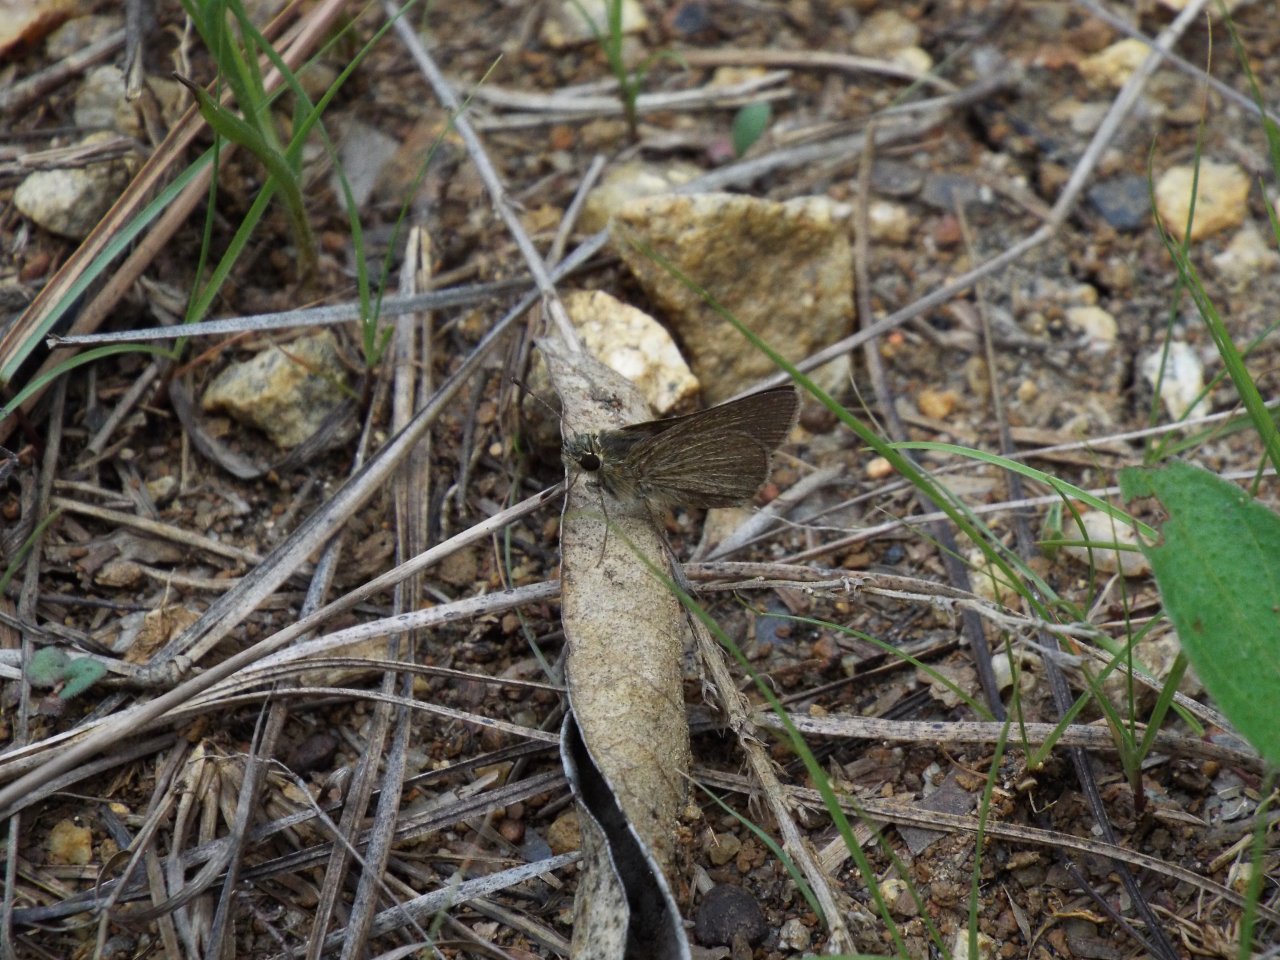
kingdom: Animalia
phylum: Arthropoda
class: Insecta
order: Lepidoptera
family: Hesperiidae
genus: Nastra
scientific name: Nastra lherminier
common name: Swarthy Skipper
